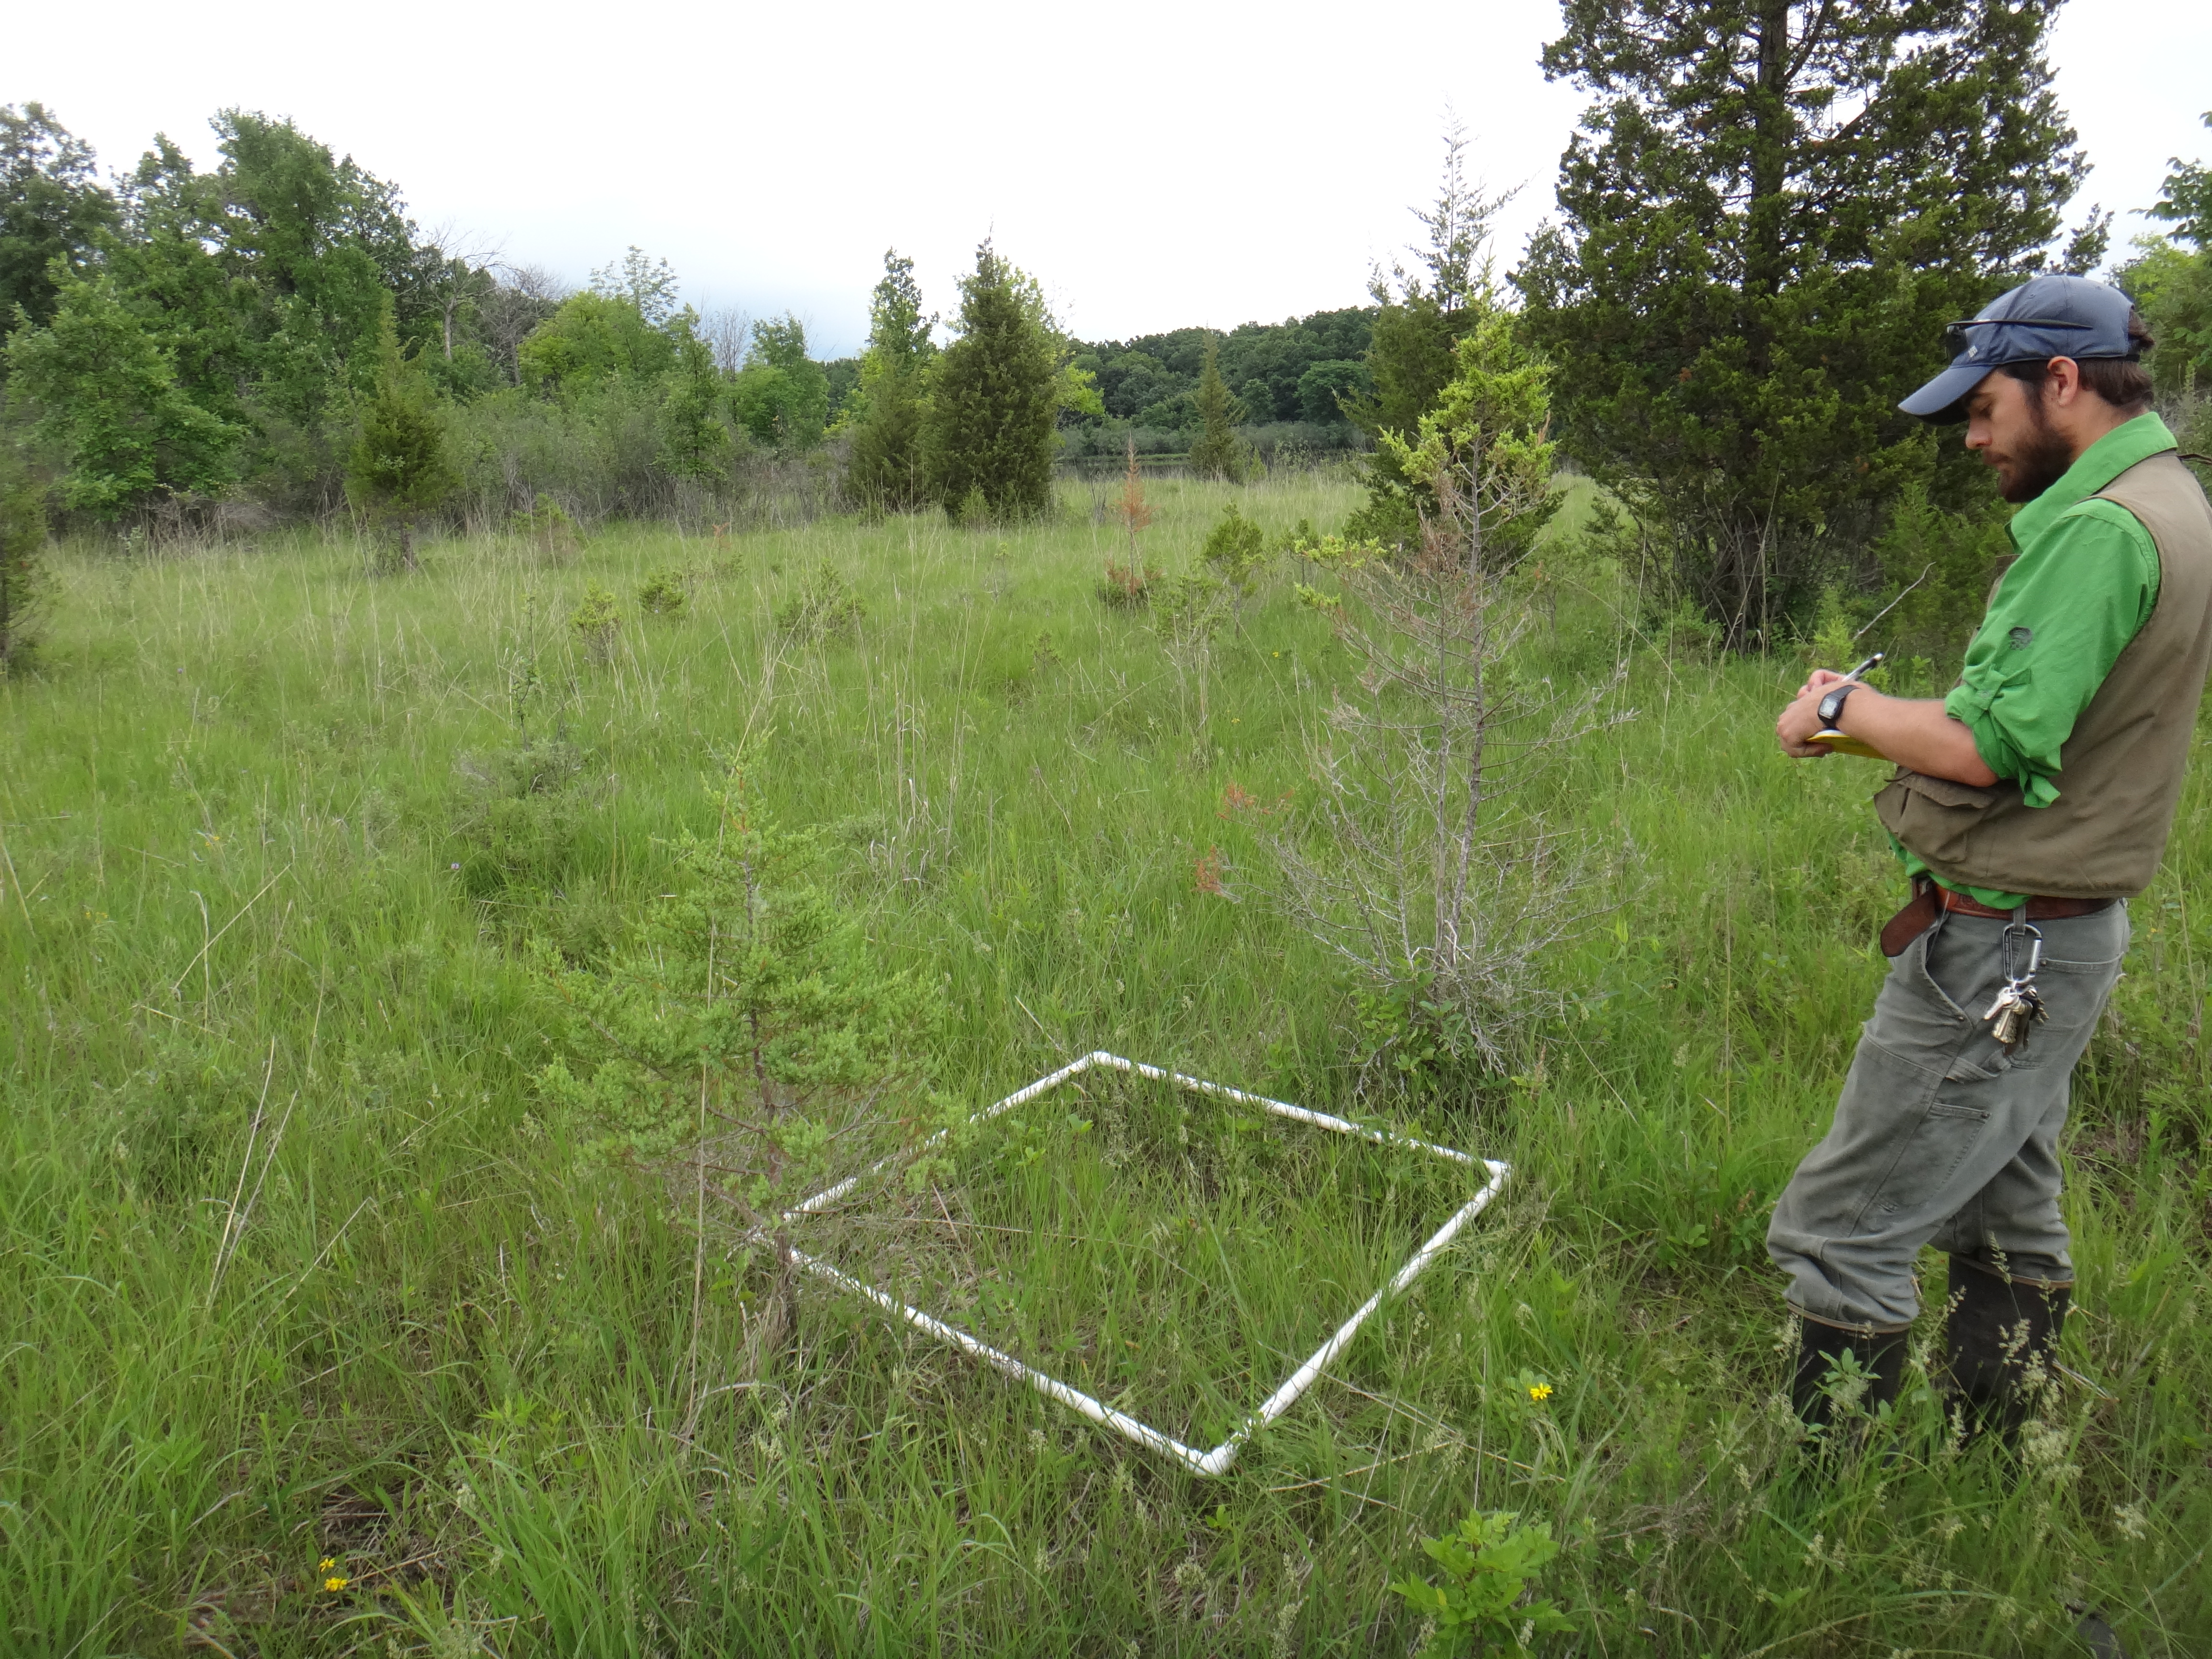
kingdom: Plantae
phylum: Tracheophyta
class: Magnoliopsida
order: Rosales
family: Rosaceae
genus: Dasiphora
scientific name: Dasiphora fruticosa
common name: Shrubby cinquefoil
